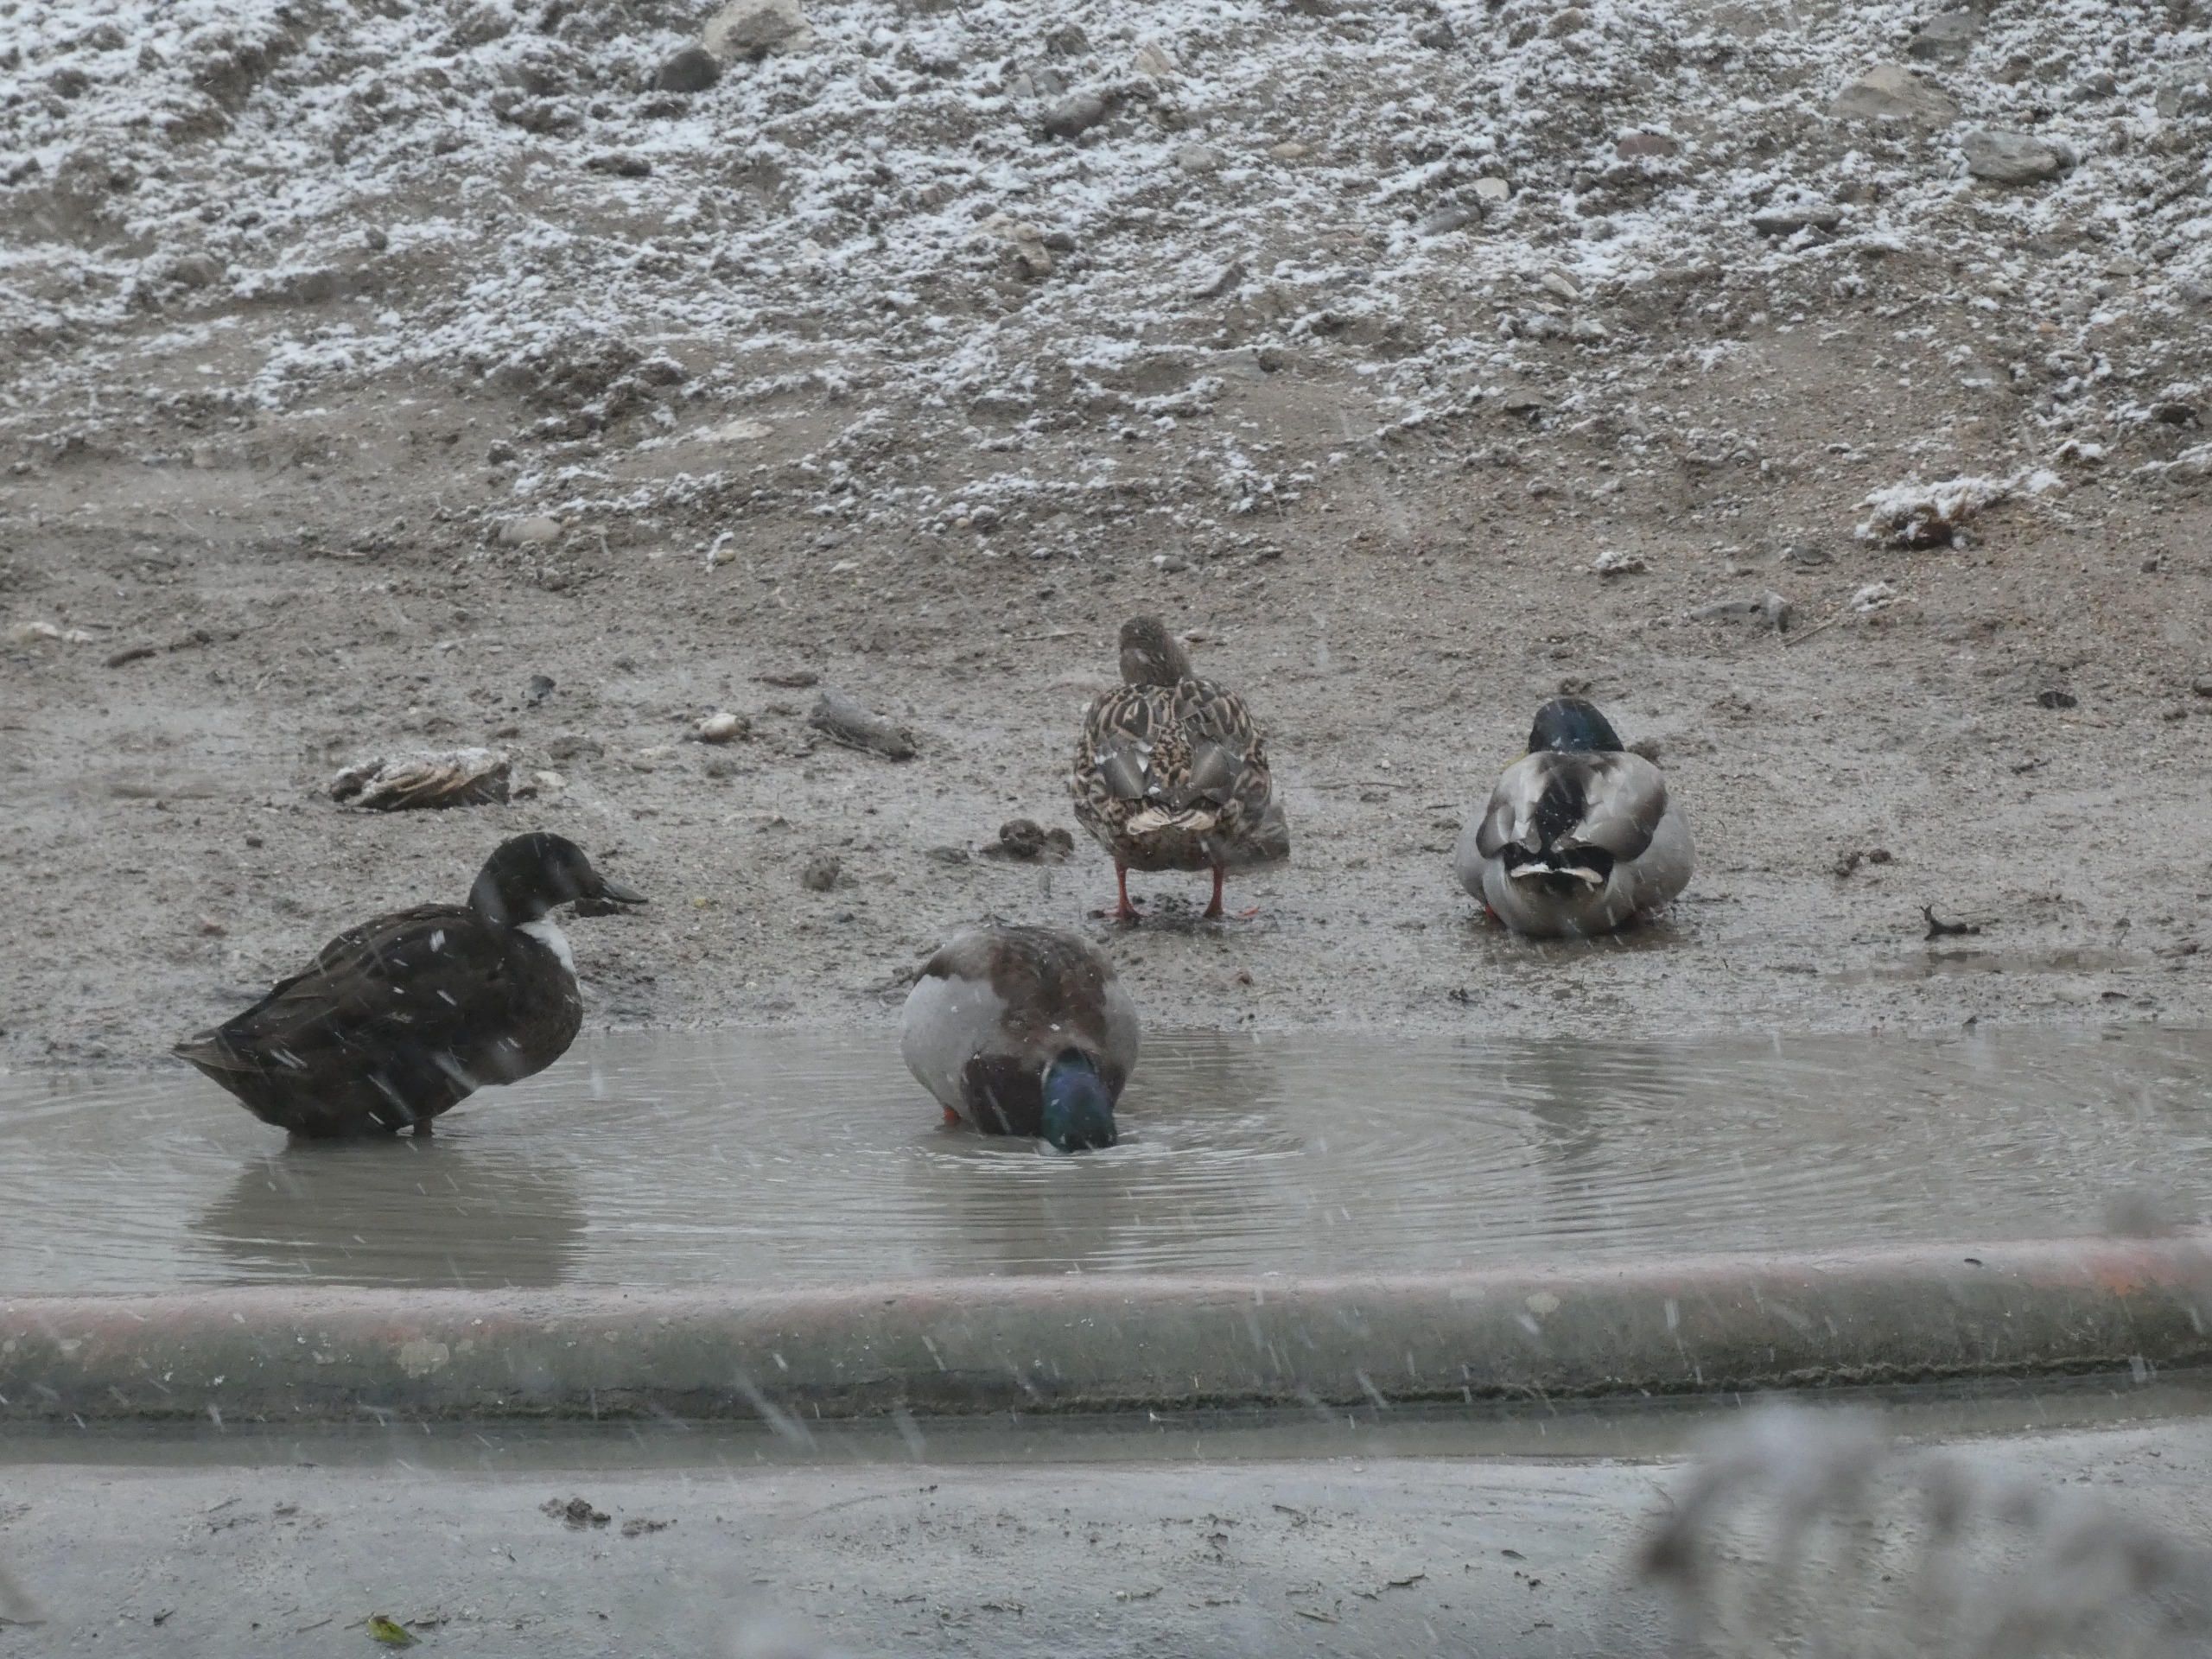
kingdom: Animalia
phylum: Chordata
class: Aves
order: Anseriformes
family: Anatidae
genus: Anas
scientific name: Anas platyrhynchos
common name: Gråand
